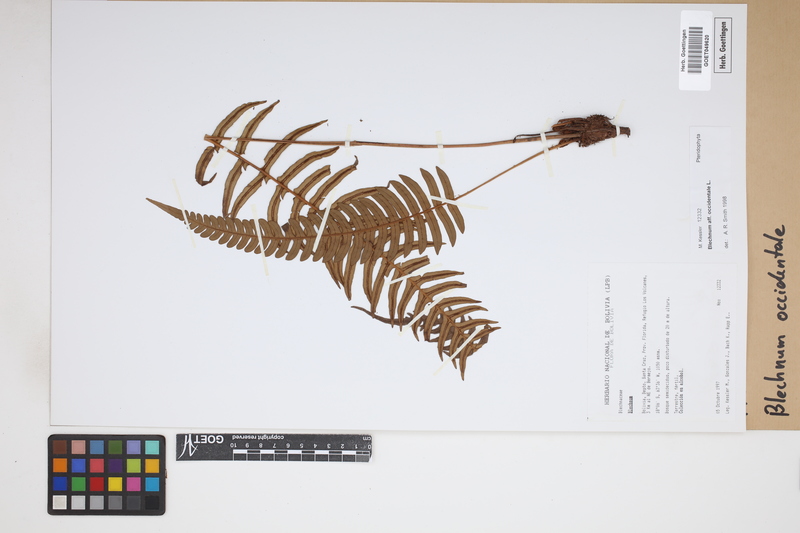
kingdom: Plantae
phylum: Tracheophyta
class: Polypodiopsida
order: Polypodiales
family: Blechnaceae
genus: Blechnum
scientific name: Blechnum occidentale
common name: Hammock fern
